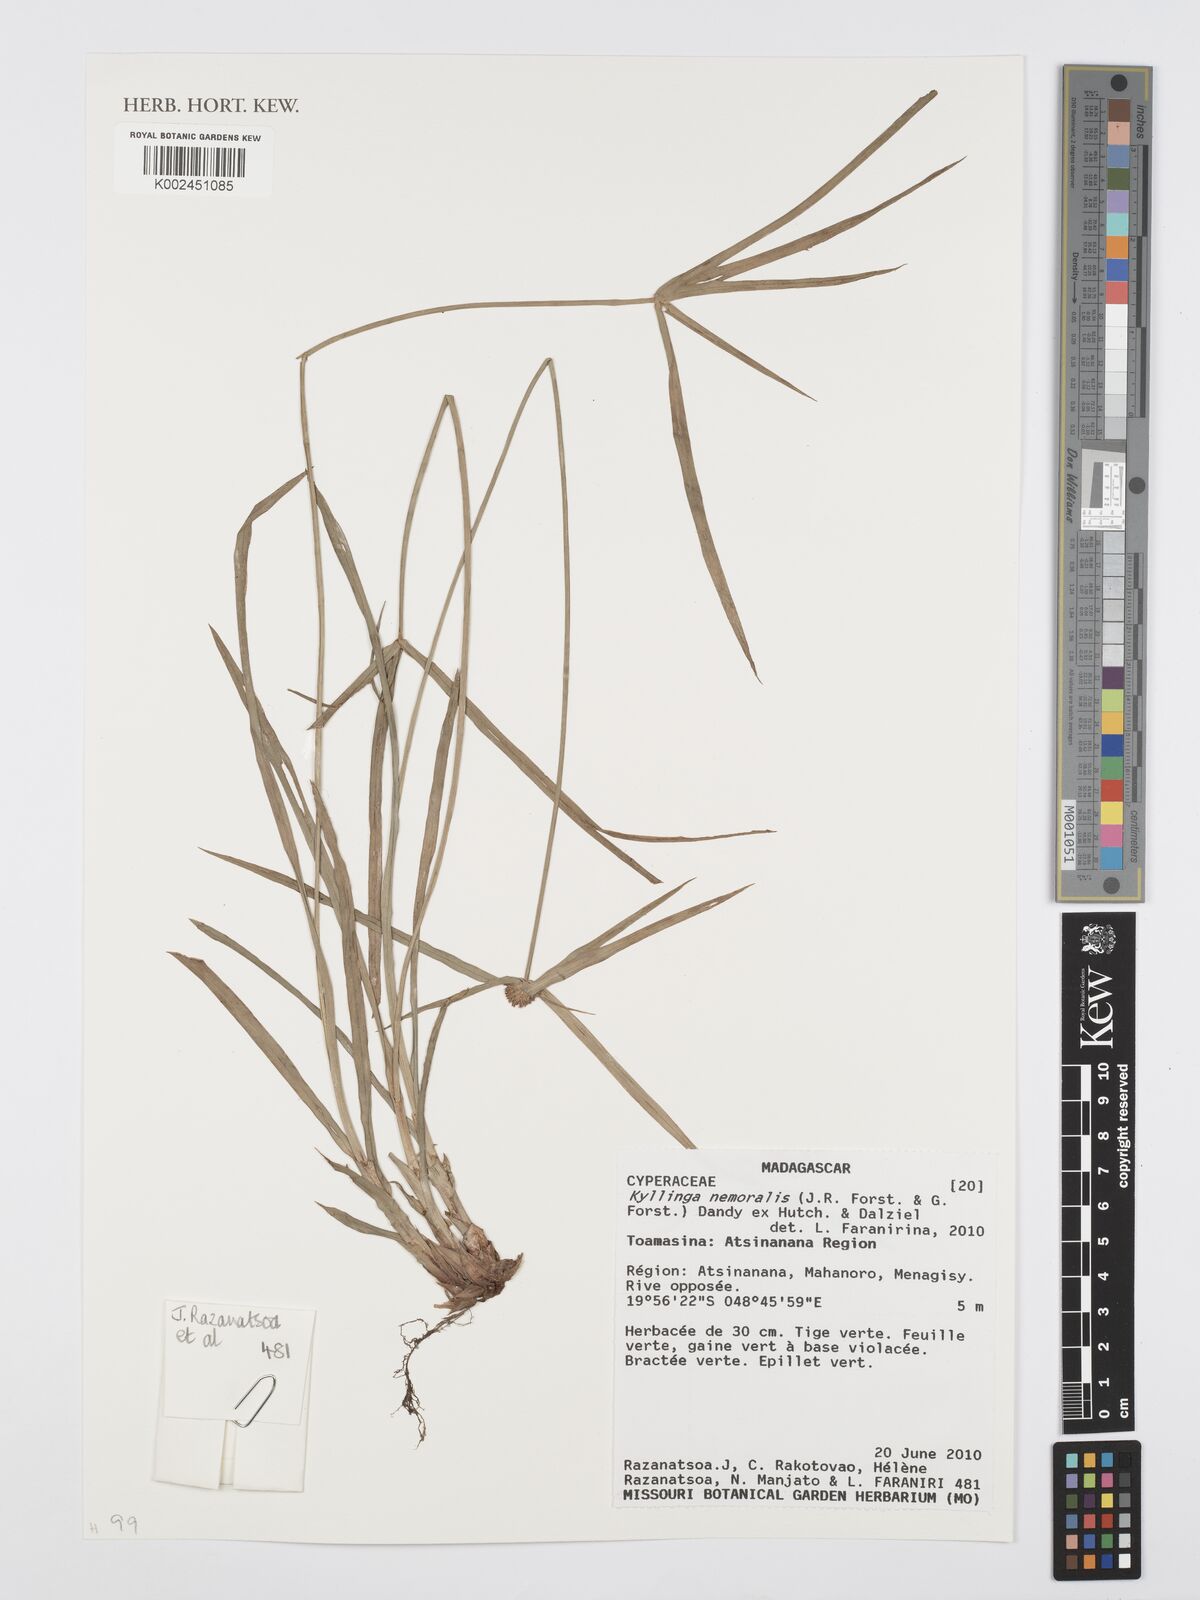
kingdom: Plantae
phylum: Tracheophyta
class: Liliopsida
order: Poales
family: Cyperaceae
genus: Cyperus
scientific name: Cyperus nemoralis
